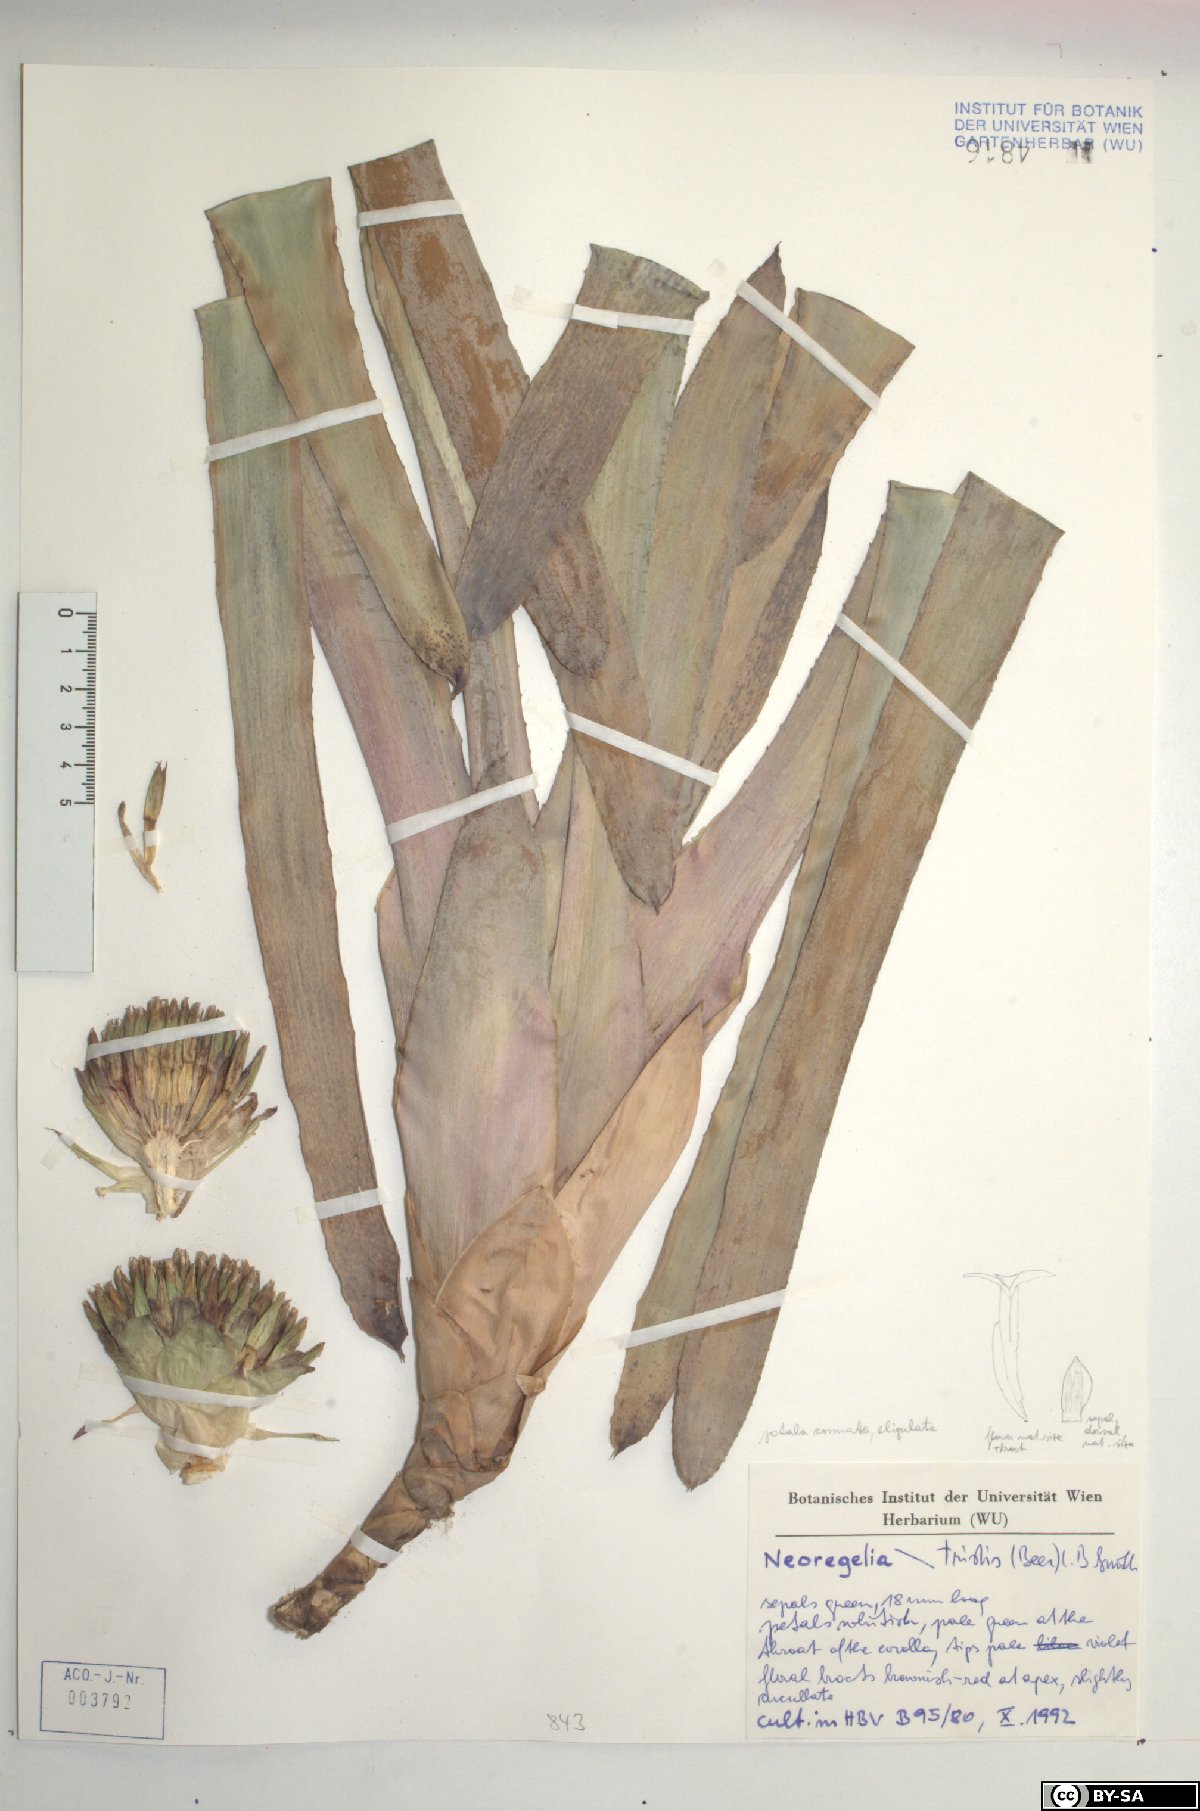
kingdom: Plantae
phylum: Tracheophyta
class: Liliopsida
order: Poales
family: Bromeliaceae
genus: Neoregelia
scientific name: Neoregelia tristis
